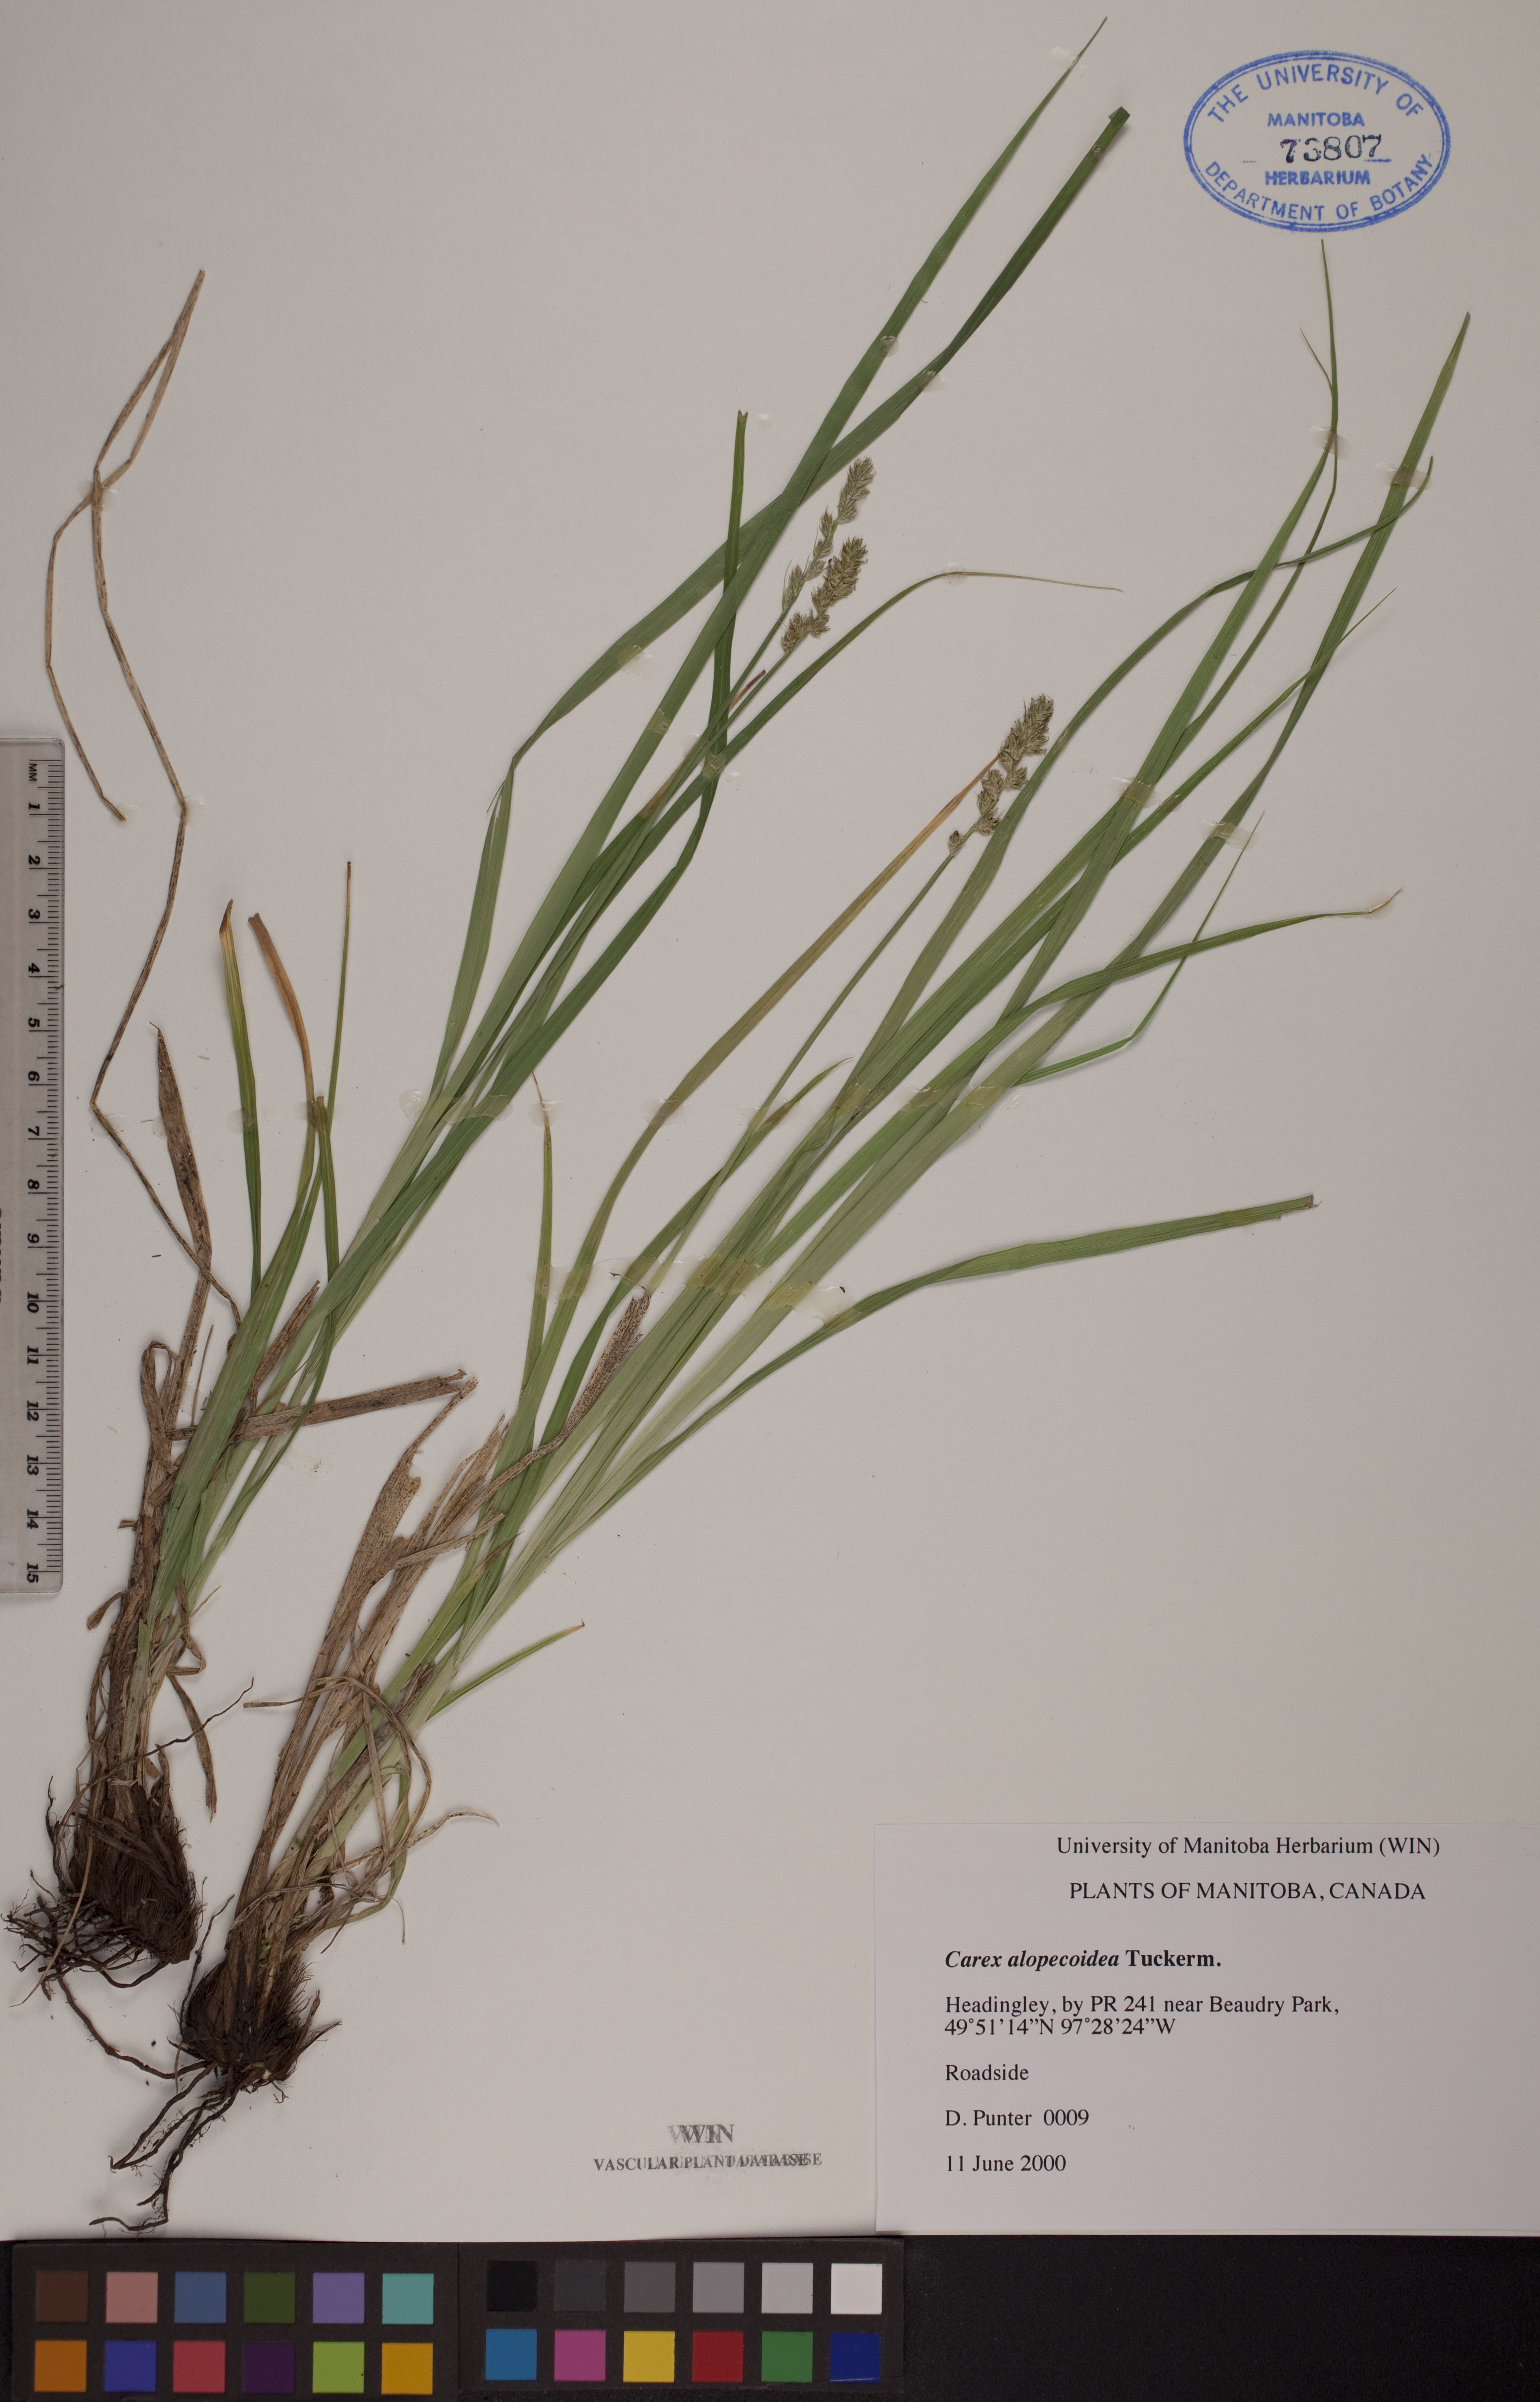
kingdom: Plantae
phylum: Tracheophyta
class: Liliopsida
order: Poales
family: Cyperaceae
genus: Carex
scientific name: Carex alopecoidea
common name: Brown-headed fox sedge
